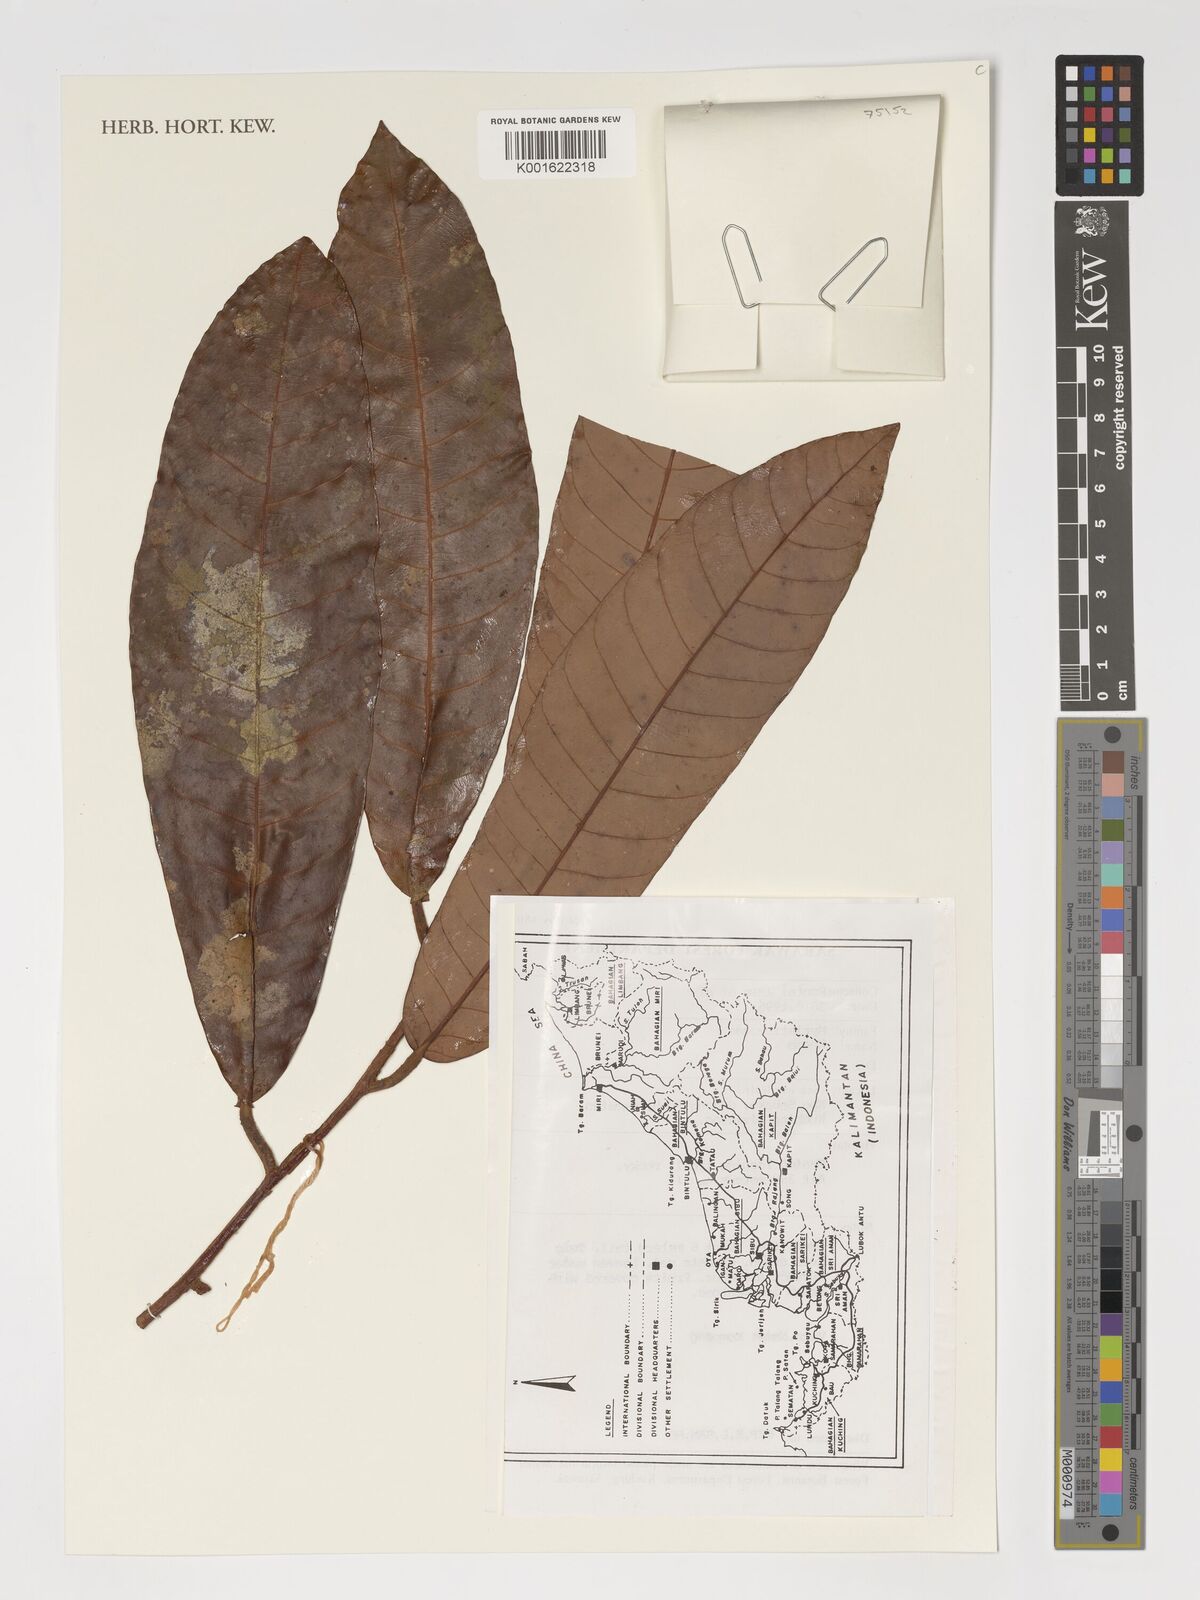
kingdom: Plantae
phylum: Tracheophyta
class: Magnoliopsida
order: Magnoliales
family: Myristicaceae
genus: Knema
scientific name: Knema
